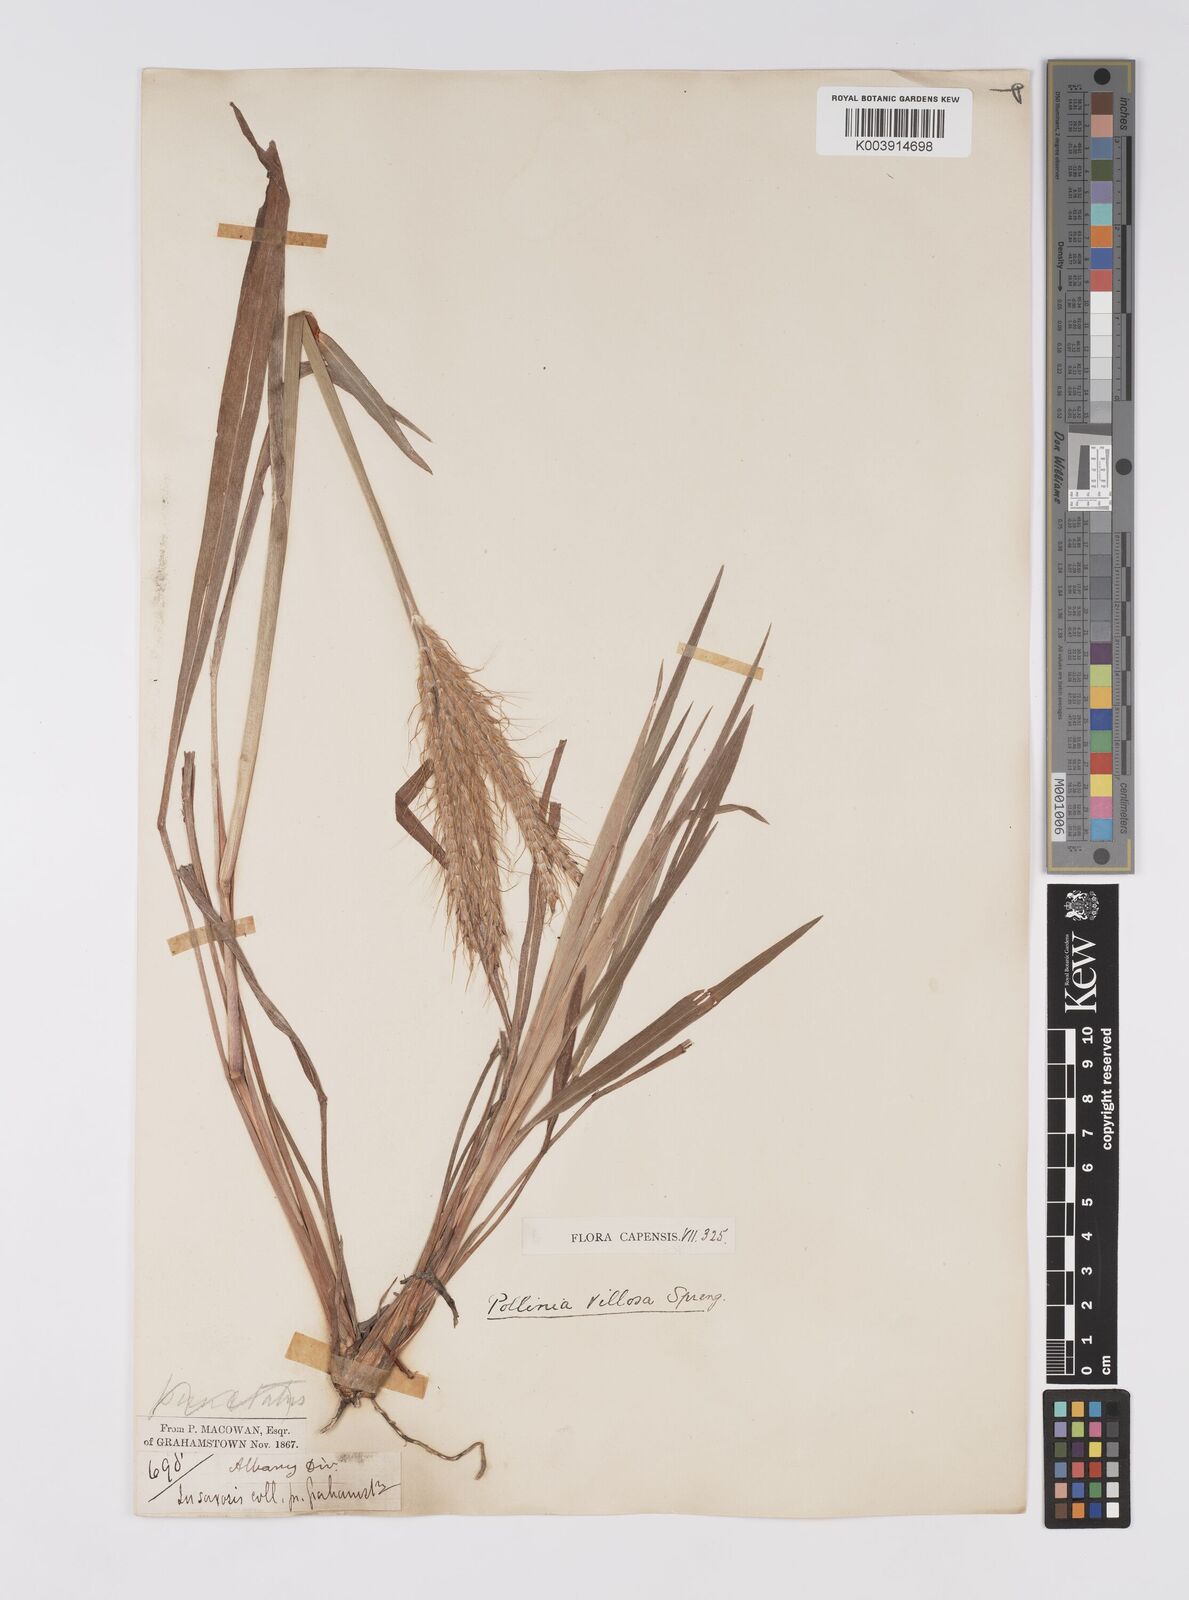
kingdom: Plantae
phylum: Tracheophyta
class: Liliopsida
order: Poales
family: Poaceae
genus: Eulalia
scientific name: Eulalia villosa
